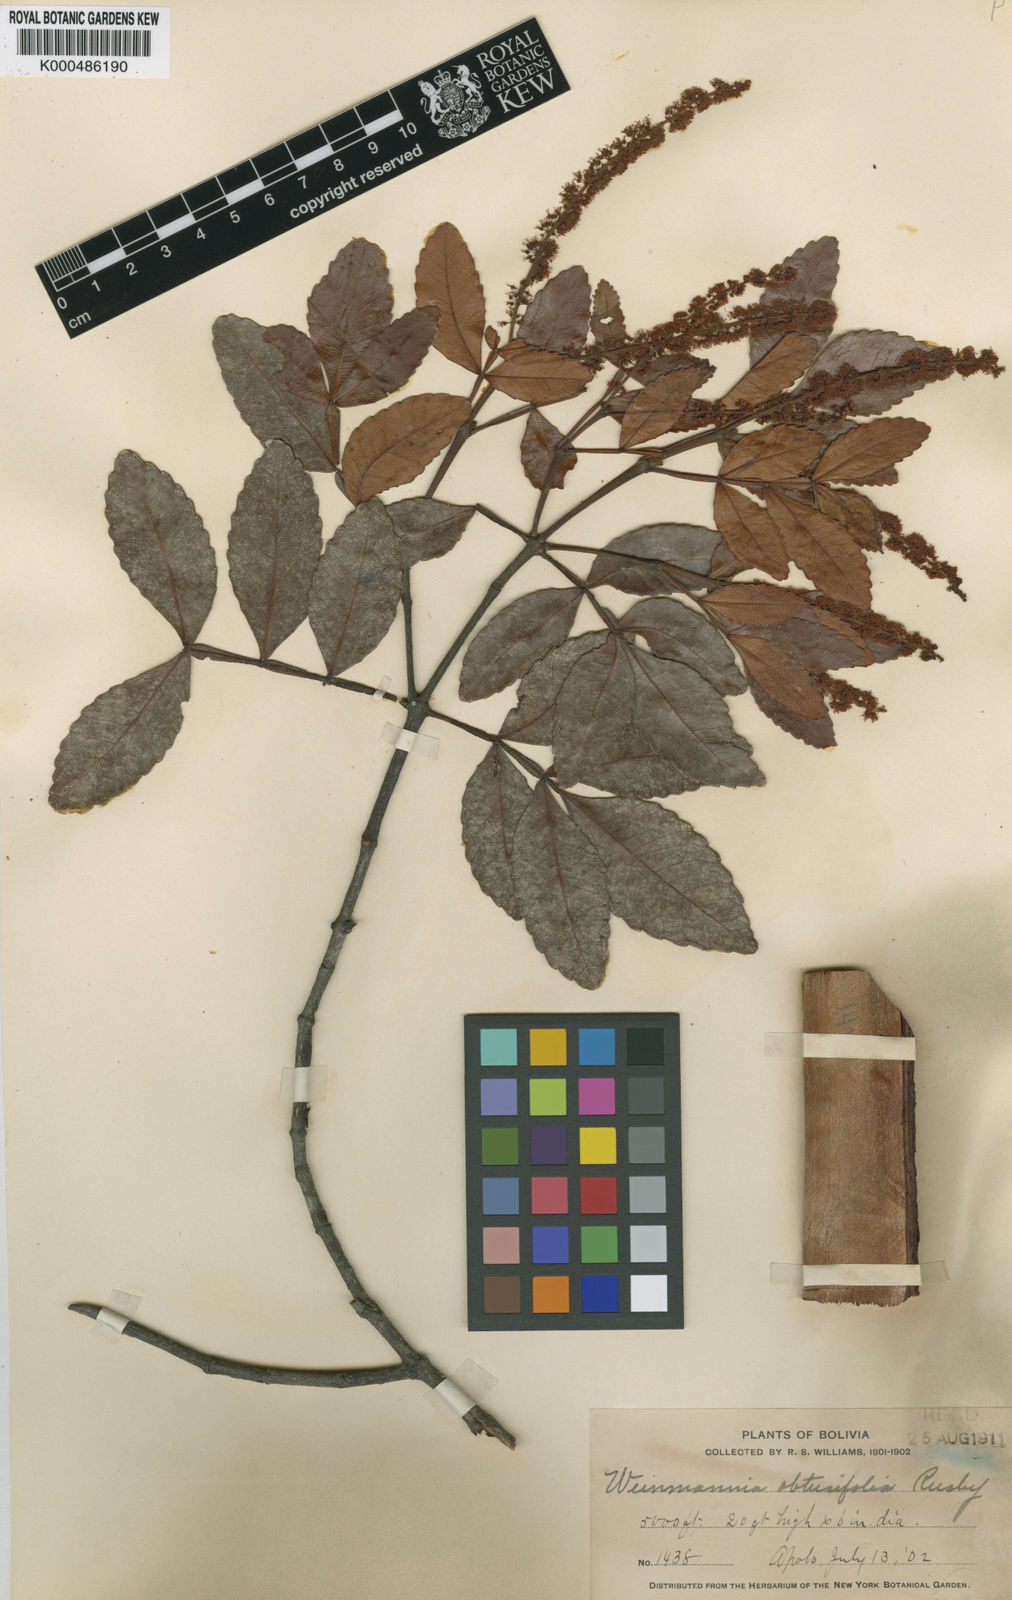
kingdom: Plantae
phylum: Tracheophyta
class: Magnoliopsida
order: Oxalidales
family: Cunoniaceae
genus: Weinmannia
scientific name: Weinmannia boliviensis
